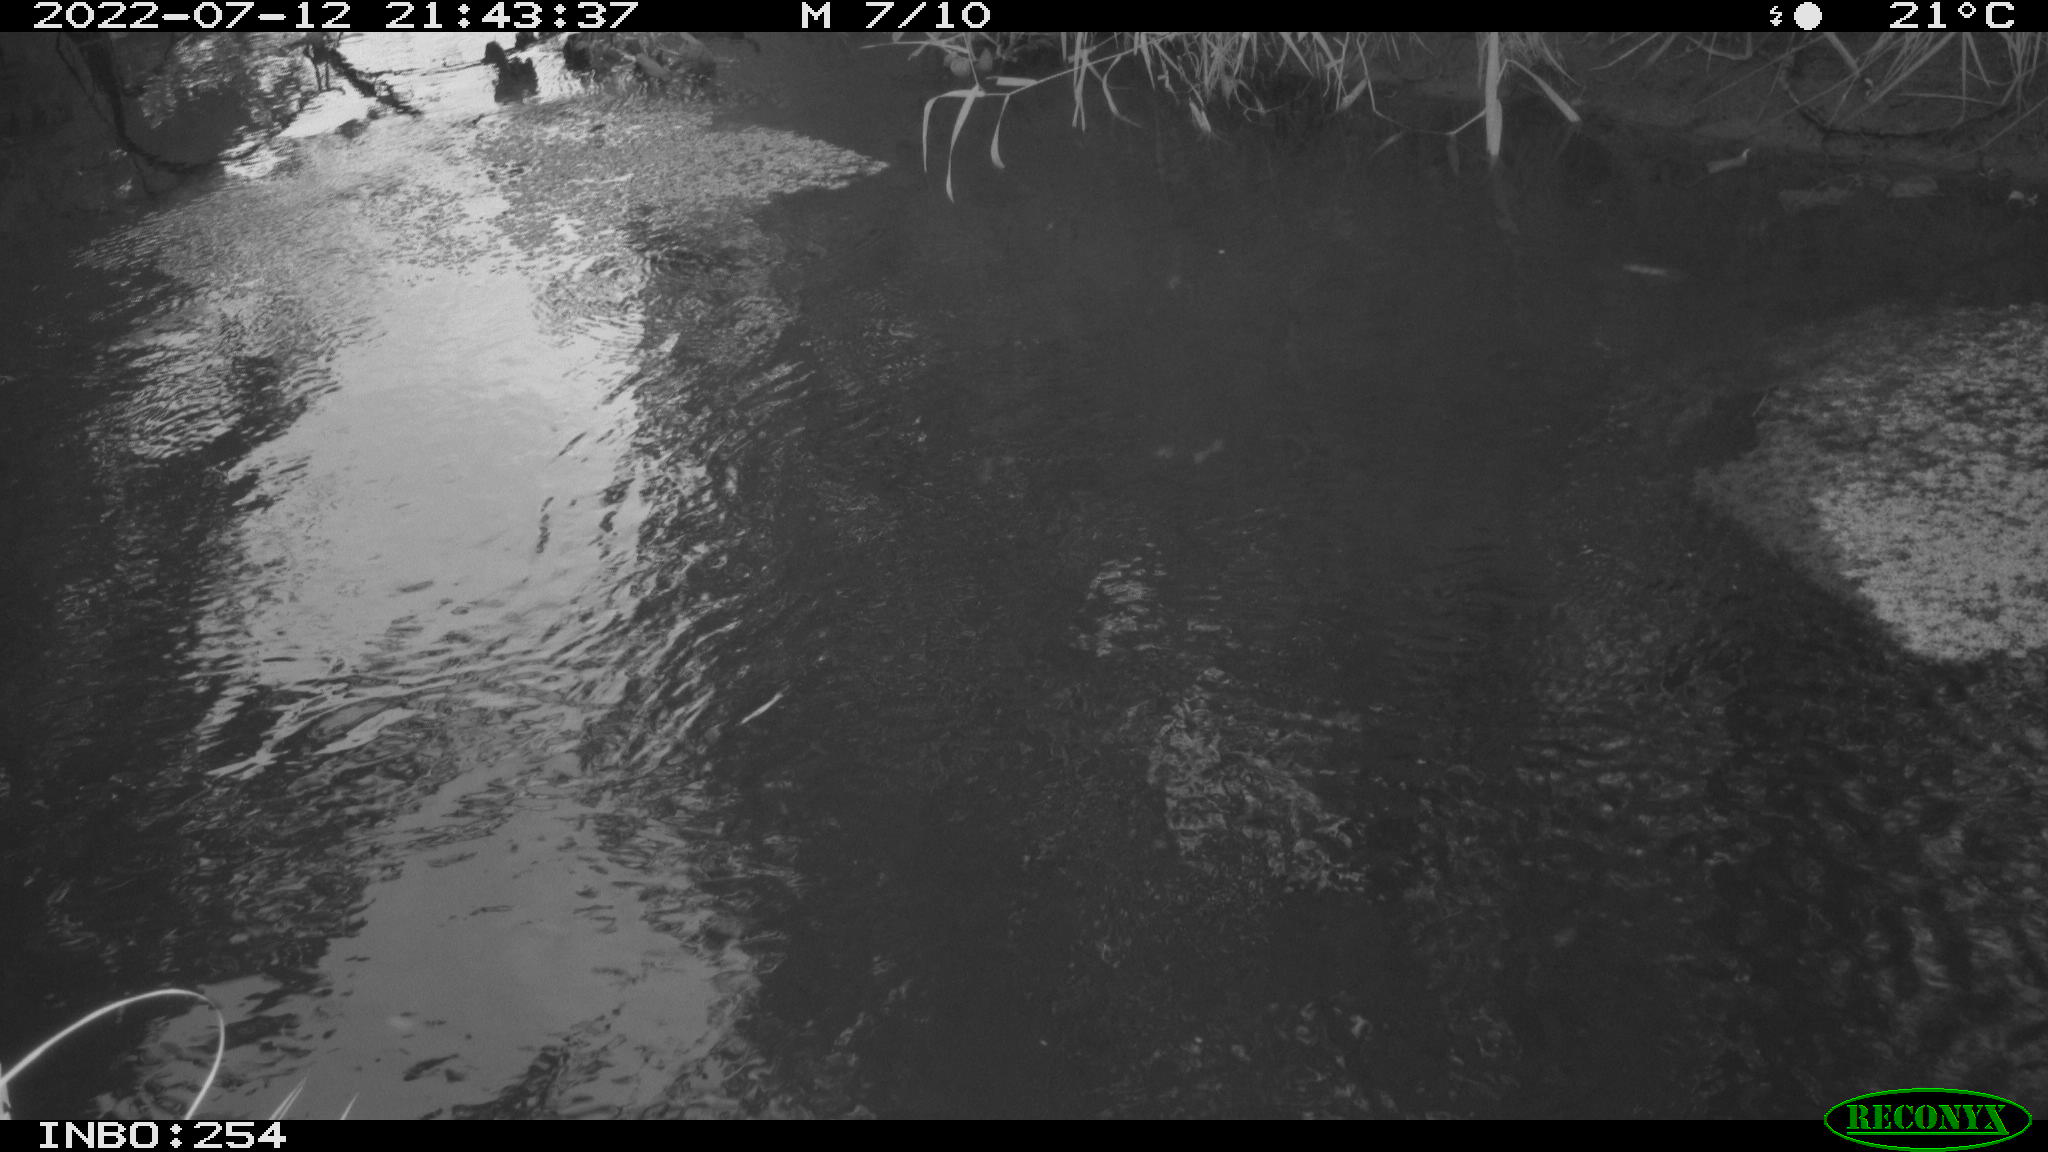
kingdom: Animalia
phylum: Chordata
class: Aves
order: Anseriformes
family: Anatidae
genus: Anas
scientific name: Anas platyrhynchos
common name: Mallard
